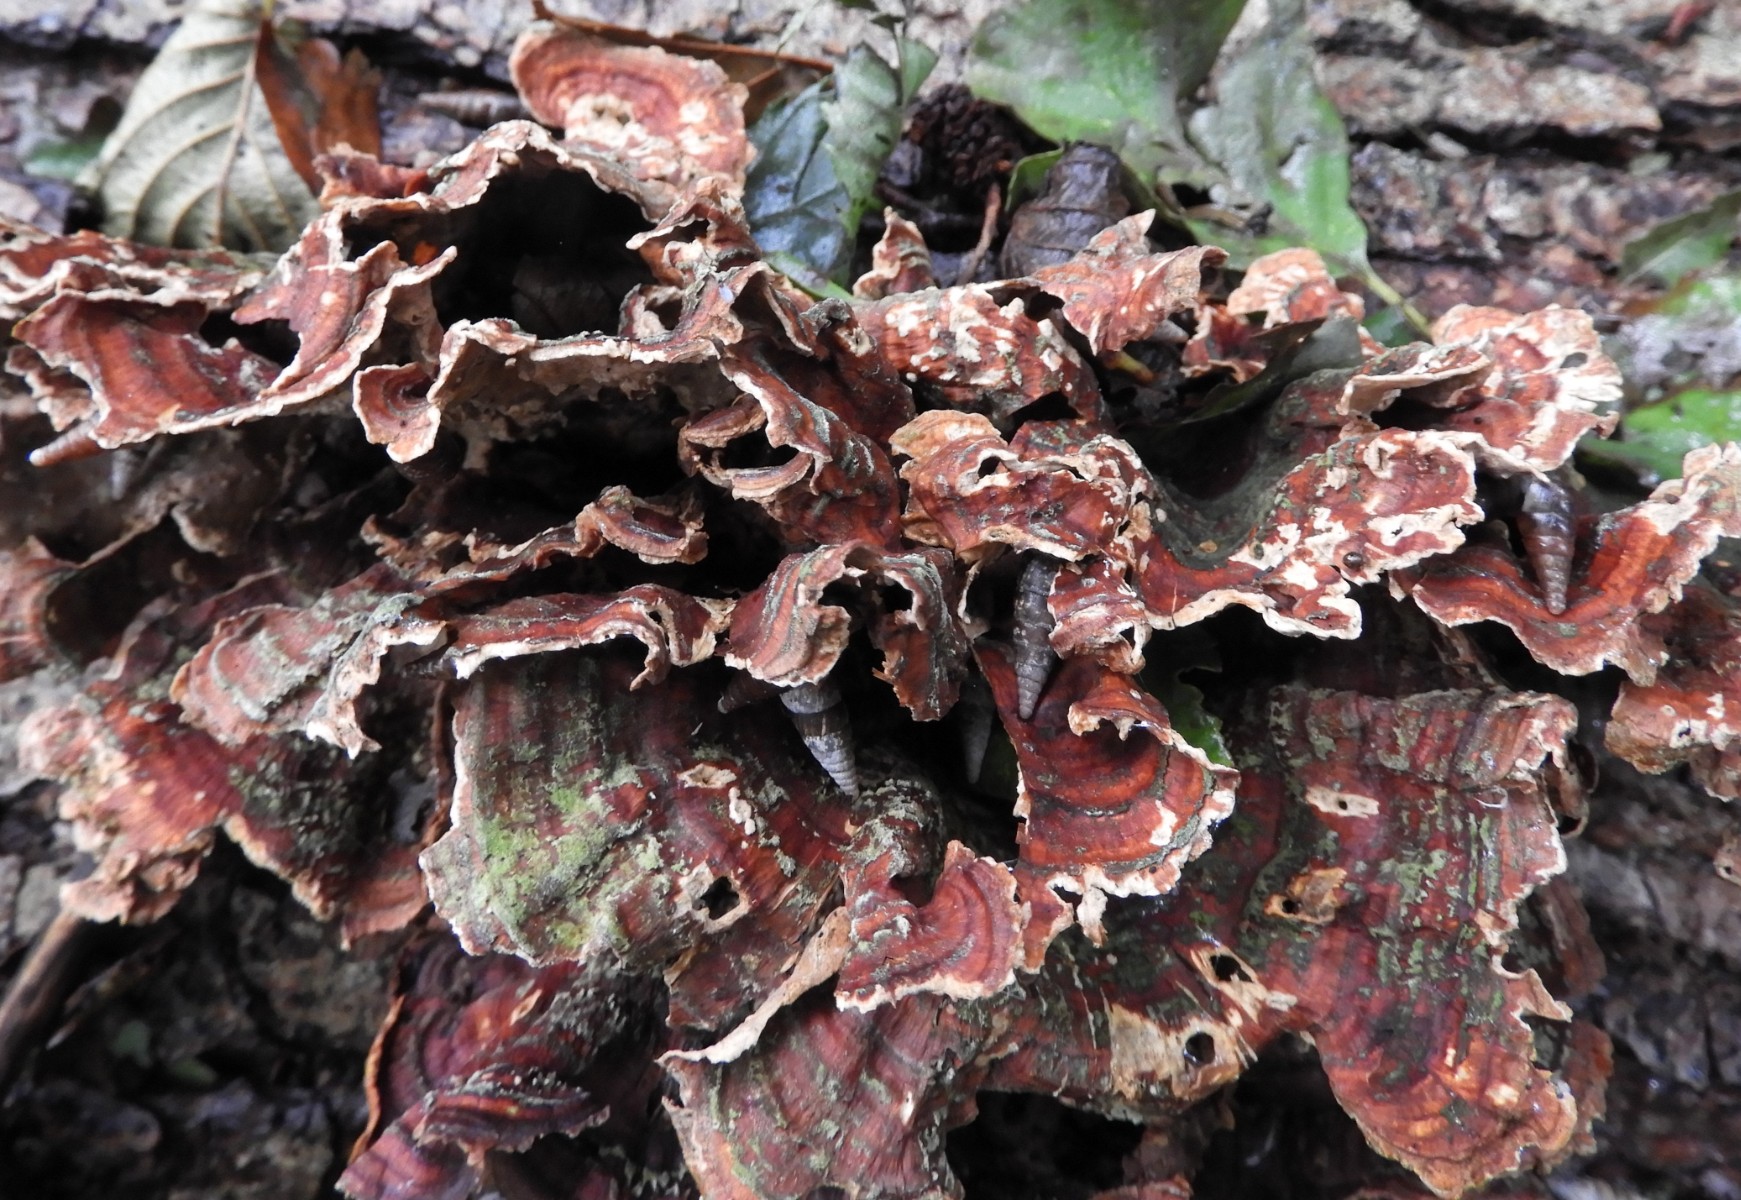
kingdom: Fungi
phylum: Basidiomycota
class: Agaricomycetes
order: Russulales
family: Stereaceae
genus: Stereum
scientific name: Stereum subtomentosum
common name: smuk lædersvamp
